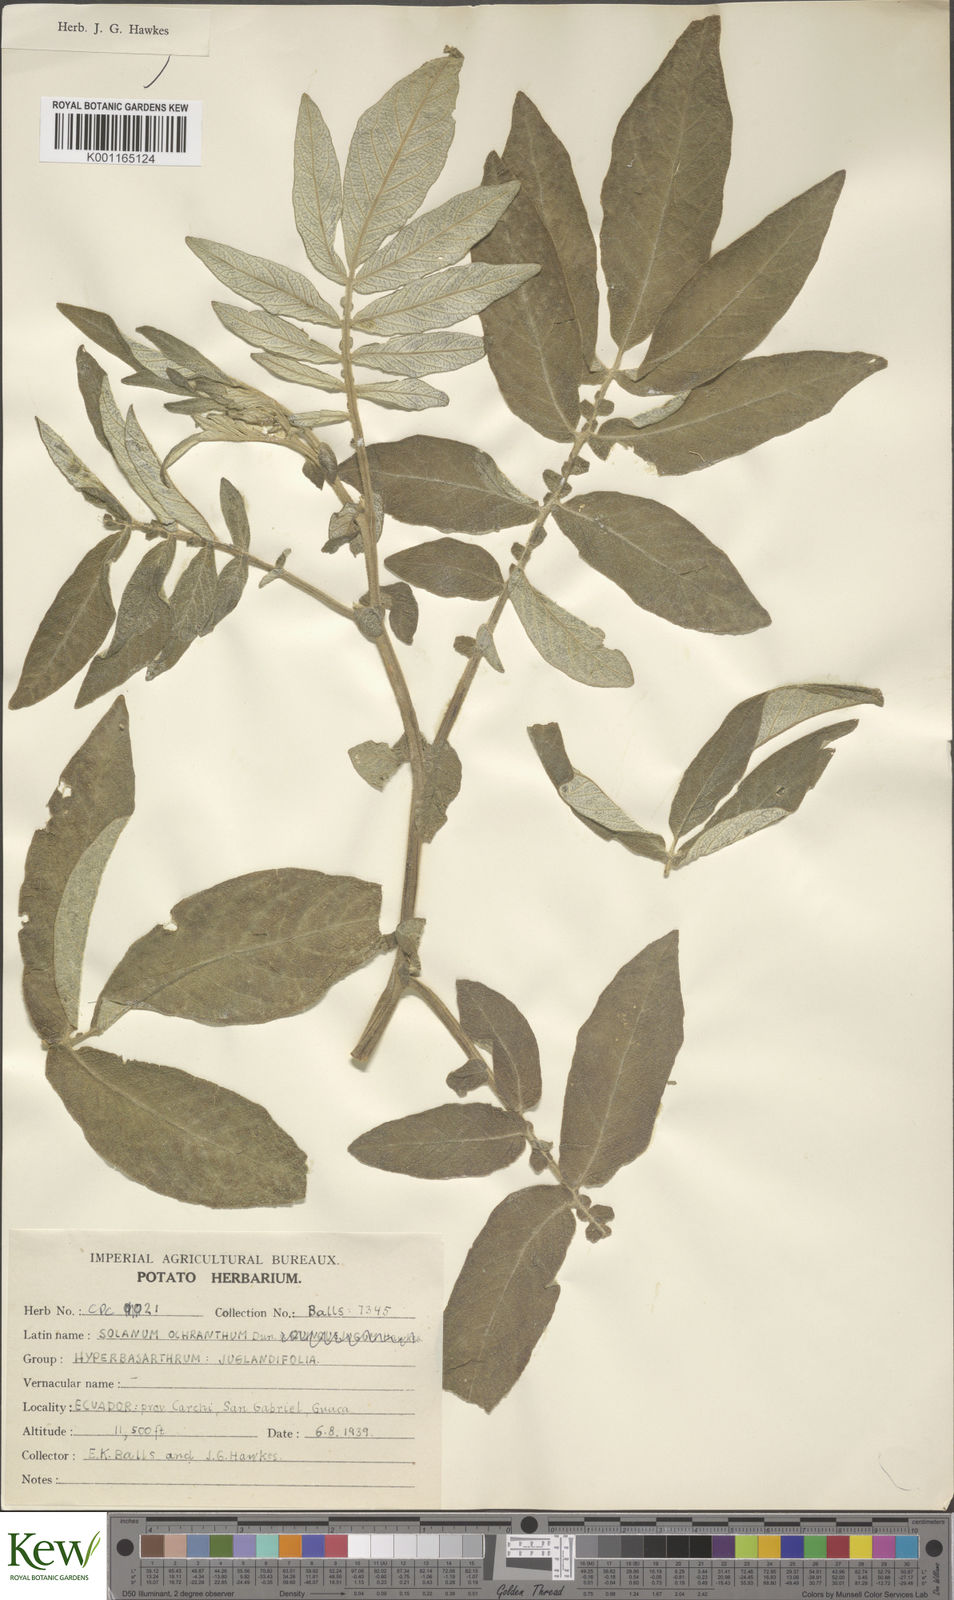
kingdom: Plantae
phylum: Tracheophyta
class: Magnoliopsida
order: Solanales
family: Solanaceae
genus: Solanum
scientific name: Solanum ochranthum
